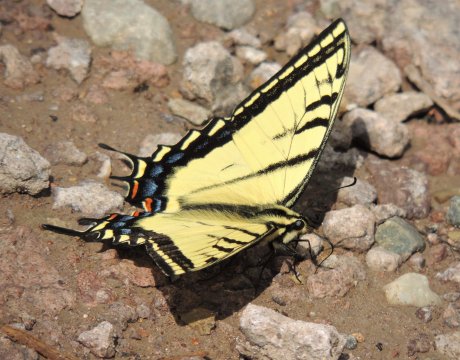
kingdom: Animalia
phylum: Arthropoda
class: Insecta
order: Lepidoptera
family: Papilionidae
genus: Papilio
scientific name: Papilio multicaudata
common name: Two-tailed Swallowtail
